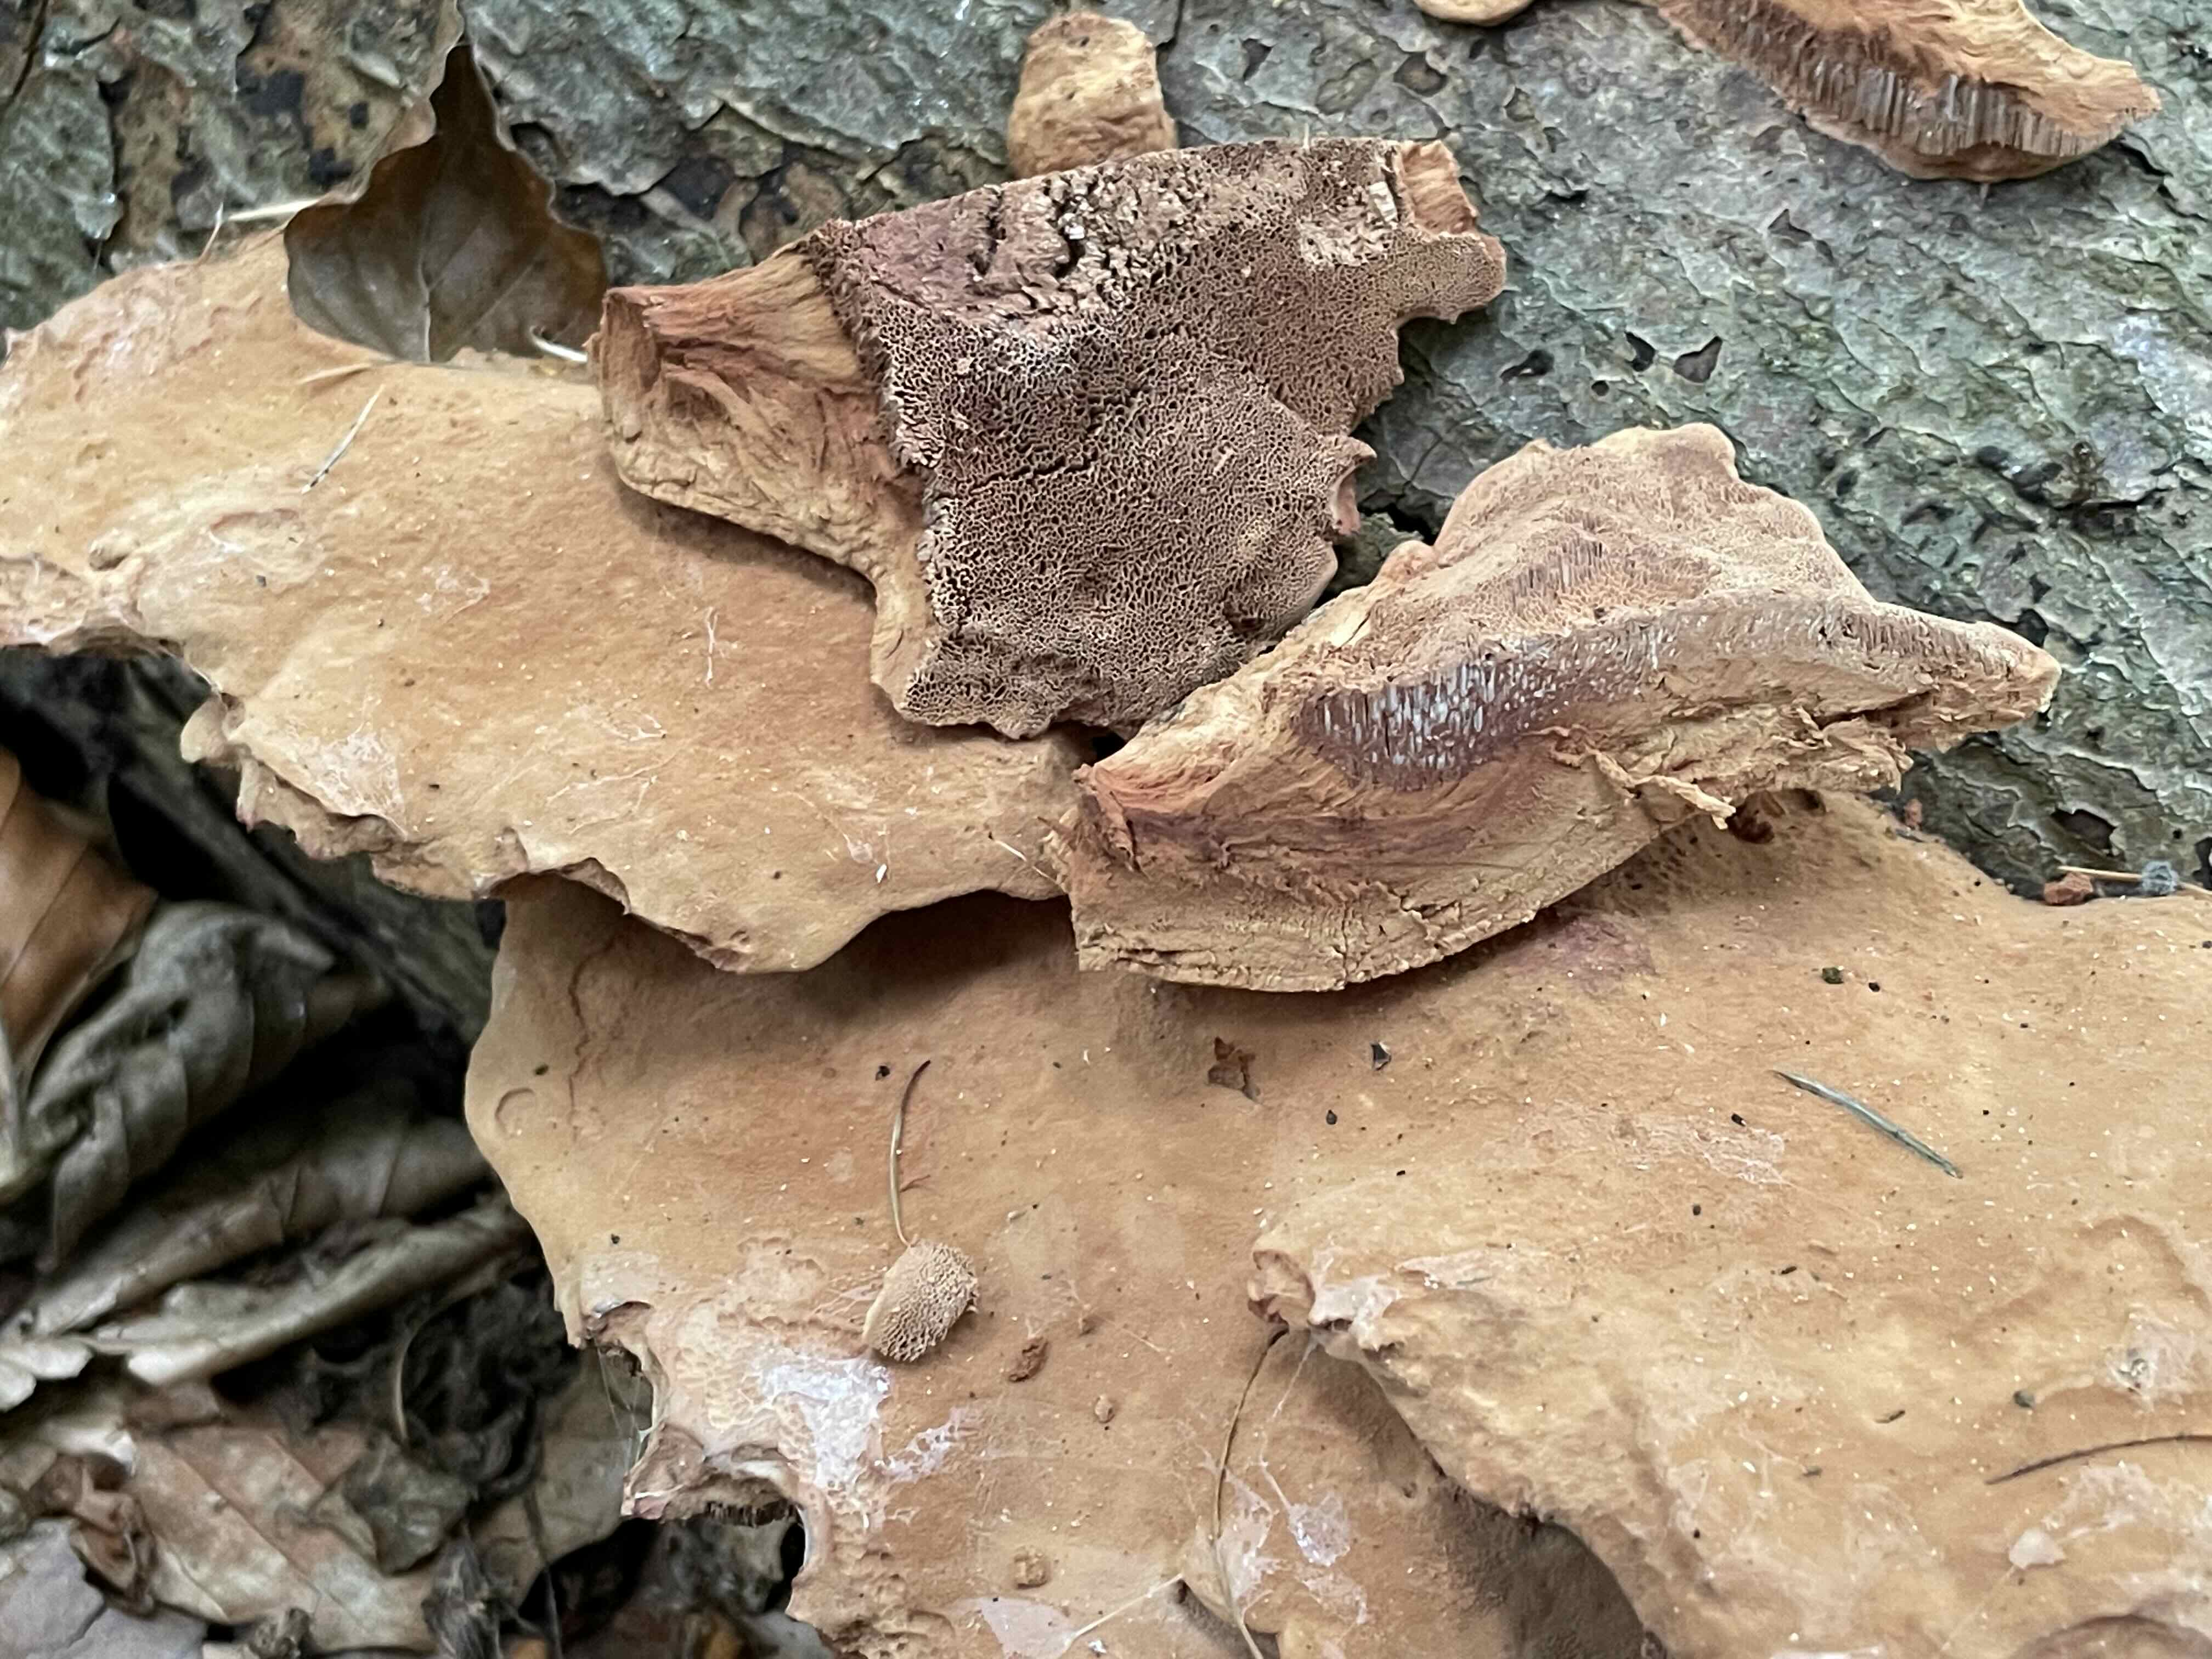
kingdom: Fungi
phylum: Basidiomycota
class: Agaricomycetes
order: Polyporales
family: Phanerochaetaceae
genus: Hapalopilus
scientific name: Hapalopilus rutilans
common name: rødlig okkerporesvamp
